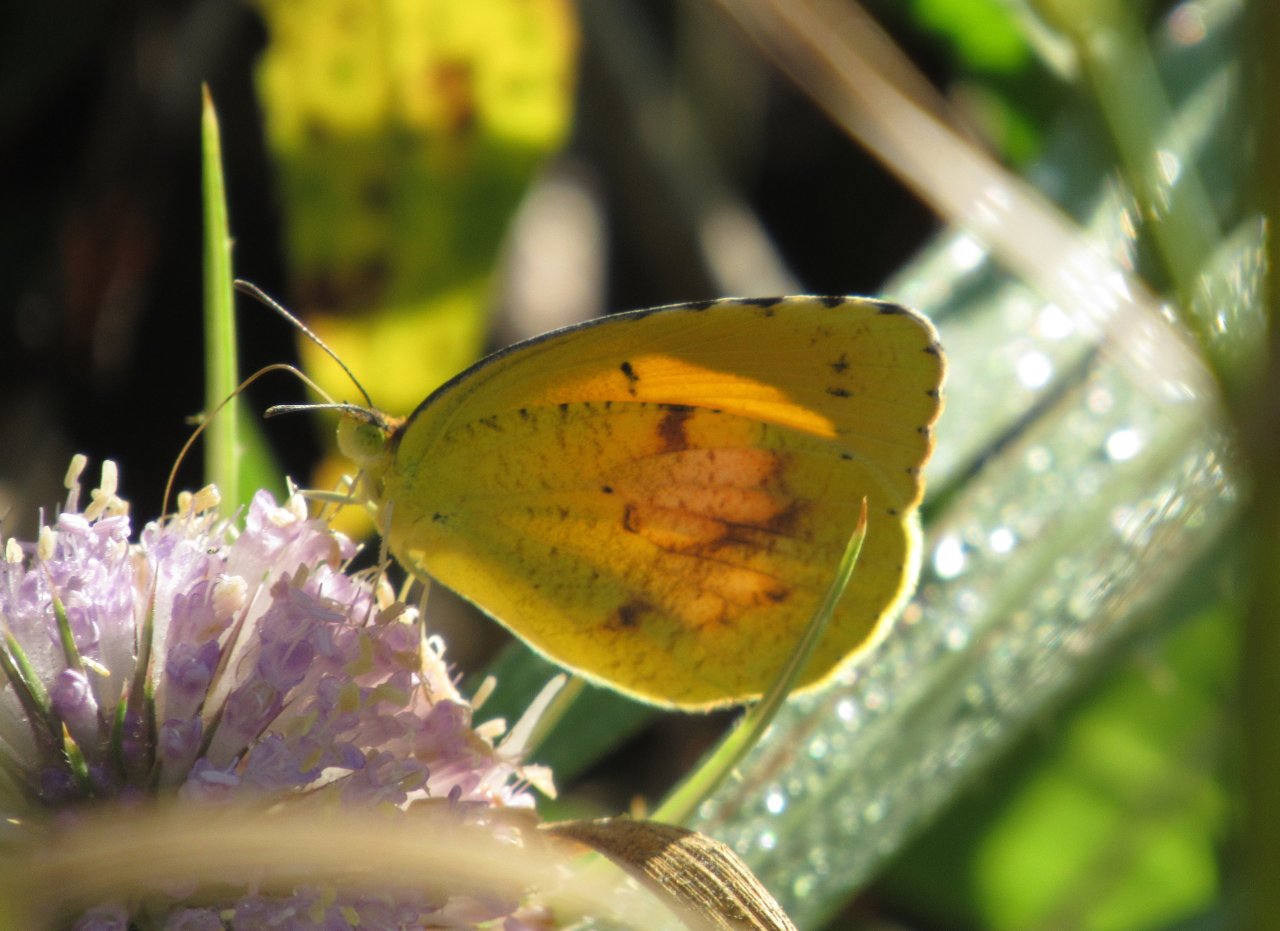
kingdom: Animalia
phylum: Arthropoda
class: Insecta
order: Lepidoptera
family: Pieridae
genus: Abaeis
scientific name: Abaeis nicippe
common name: Sleepy Orange
